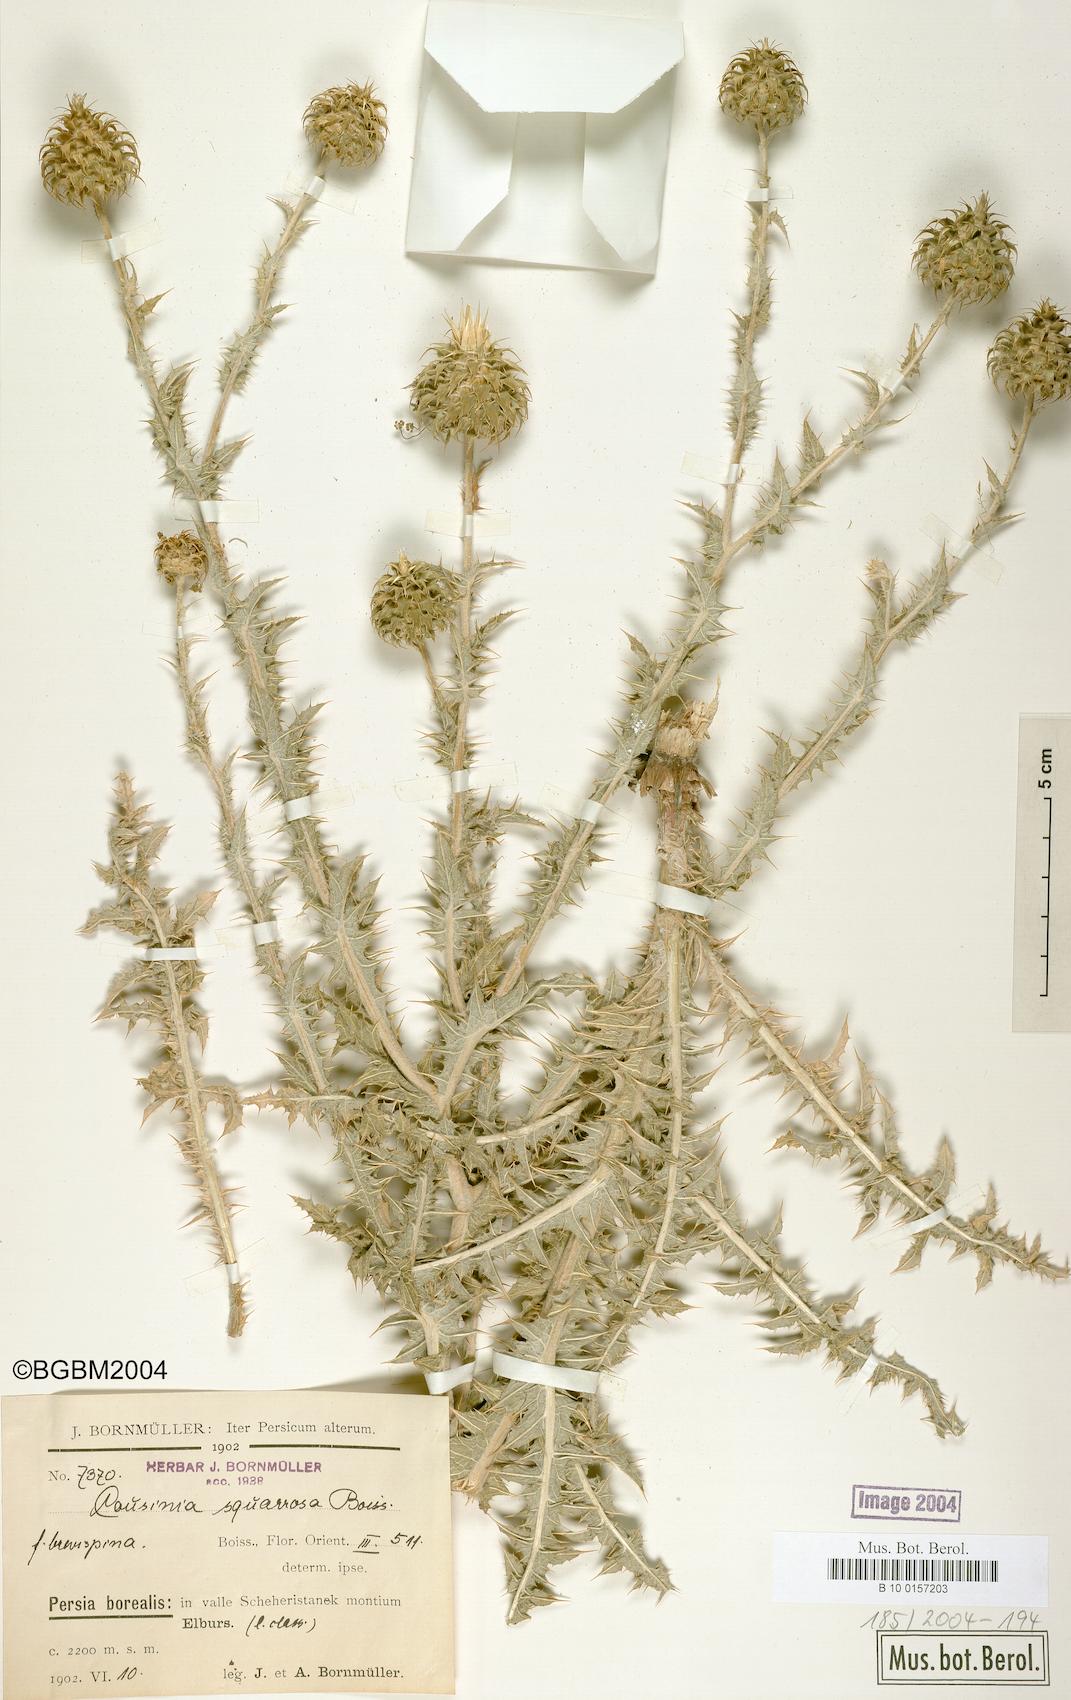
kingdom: Plantae
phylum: Tracheophyta
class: Magnoliopsida
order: Asterales
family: Asteraceae
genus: Cousinia
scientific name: Cousinia
